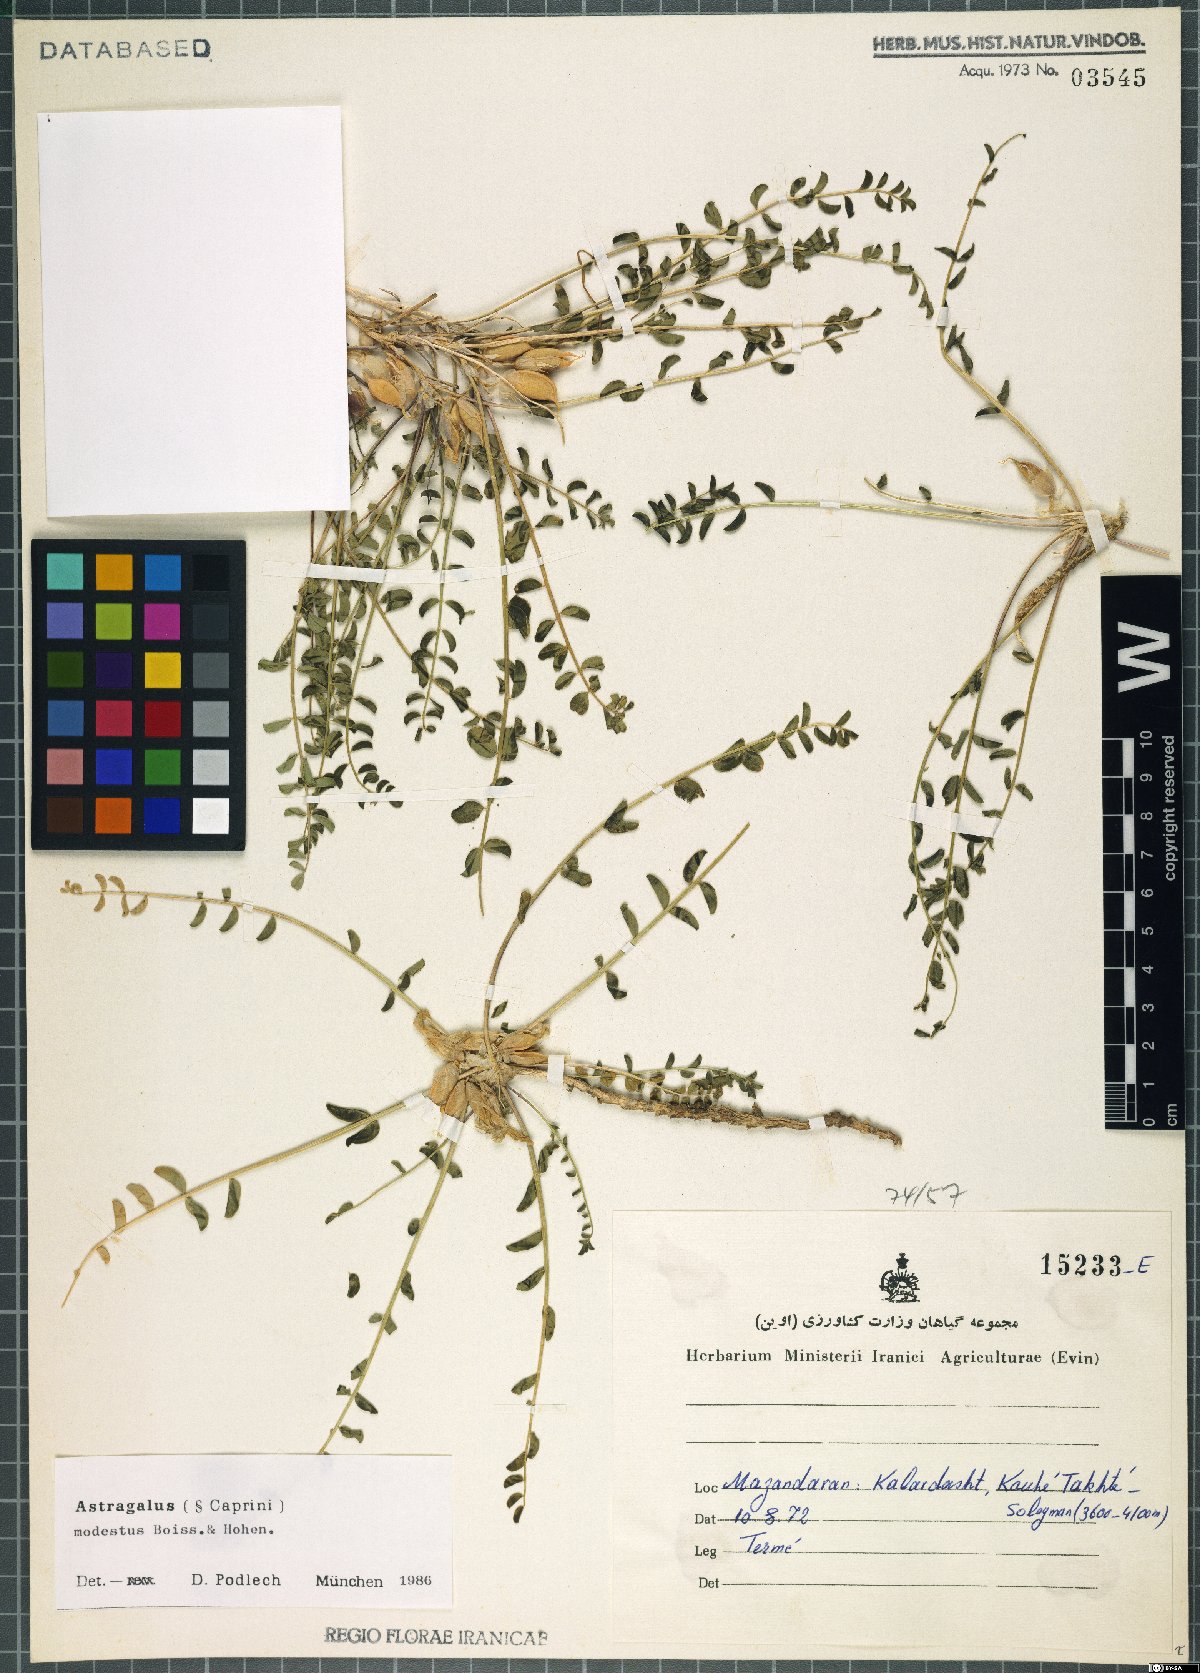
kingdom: Plantae
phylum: Tracheophyta
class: Magnoliopsida
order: Fabales
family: Fabaceae
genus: Astragalus
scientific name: Astragalus modestus
